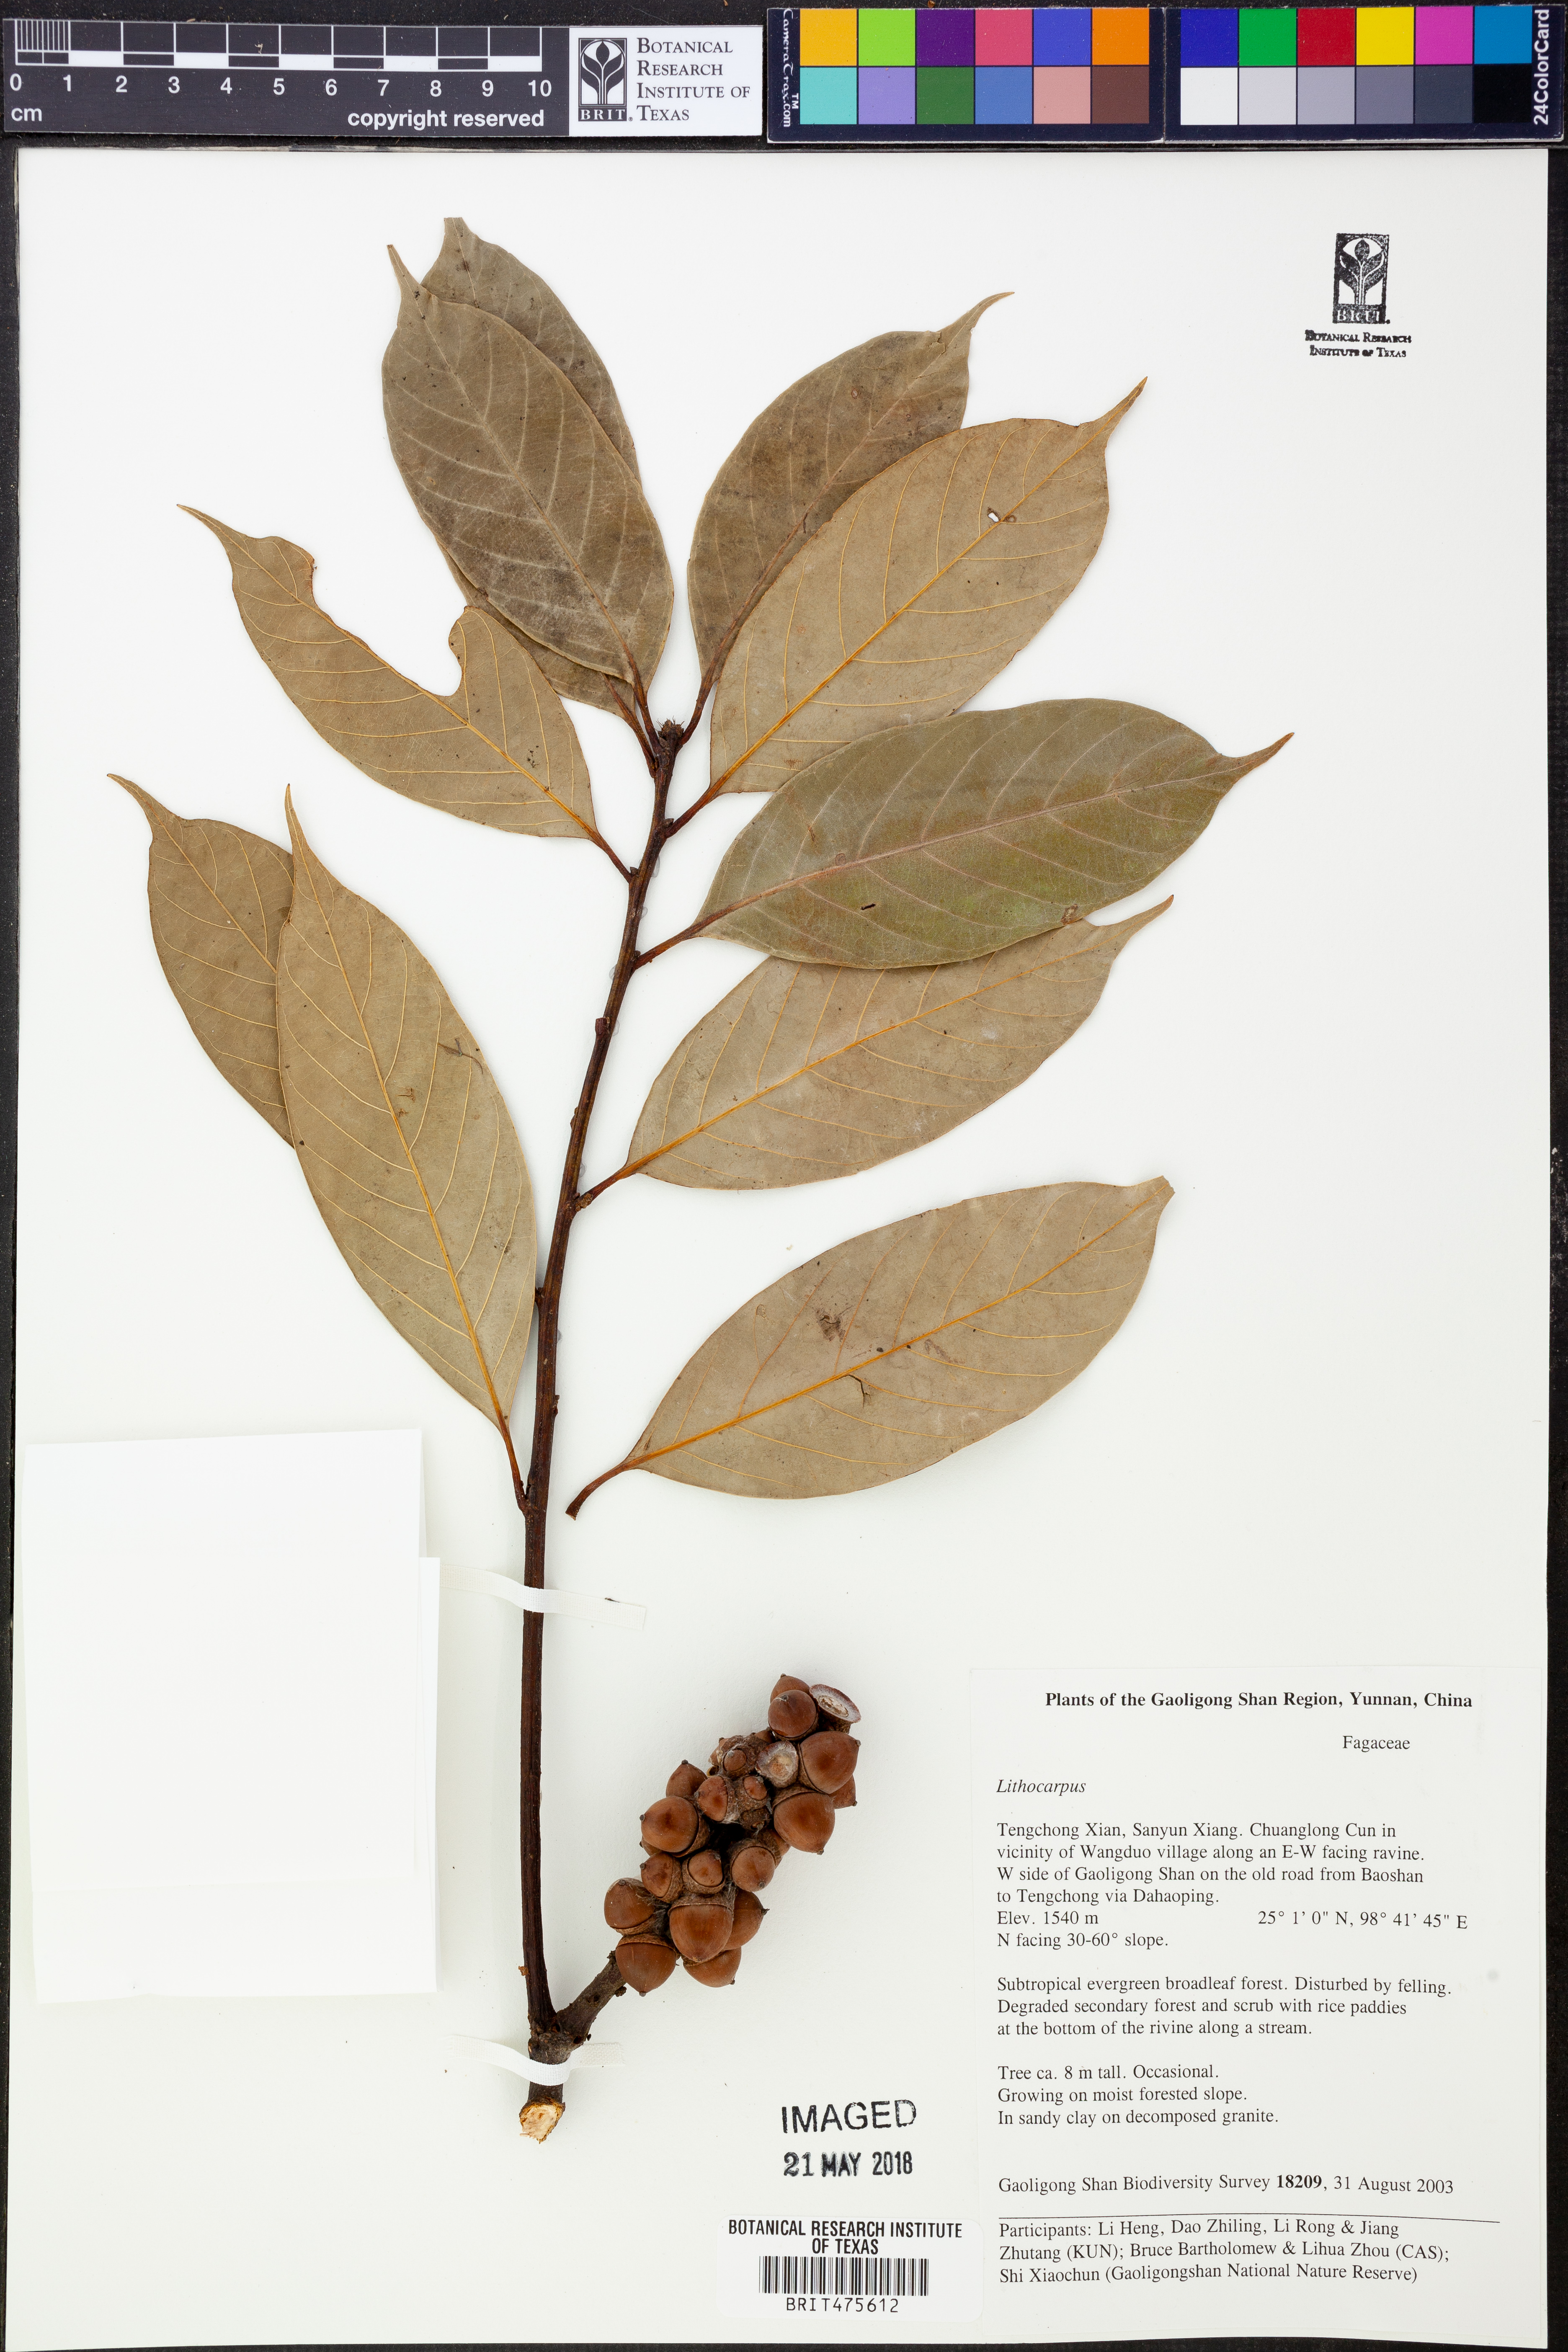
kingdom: Plantae
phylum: Tracheophyta
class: Magnoliopsida
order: Fagales
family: Fagaceae
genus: Lithocarpus
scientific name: Lithocarpus
